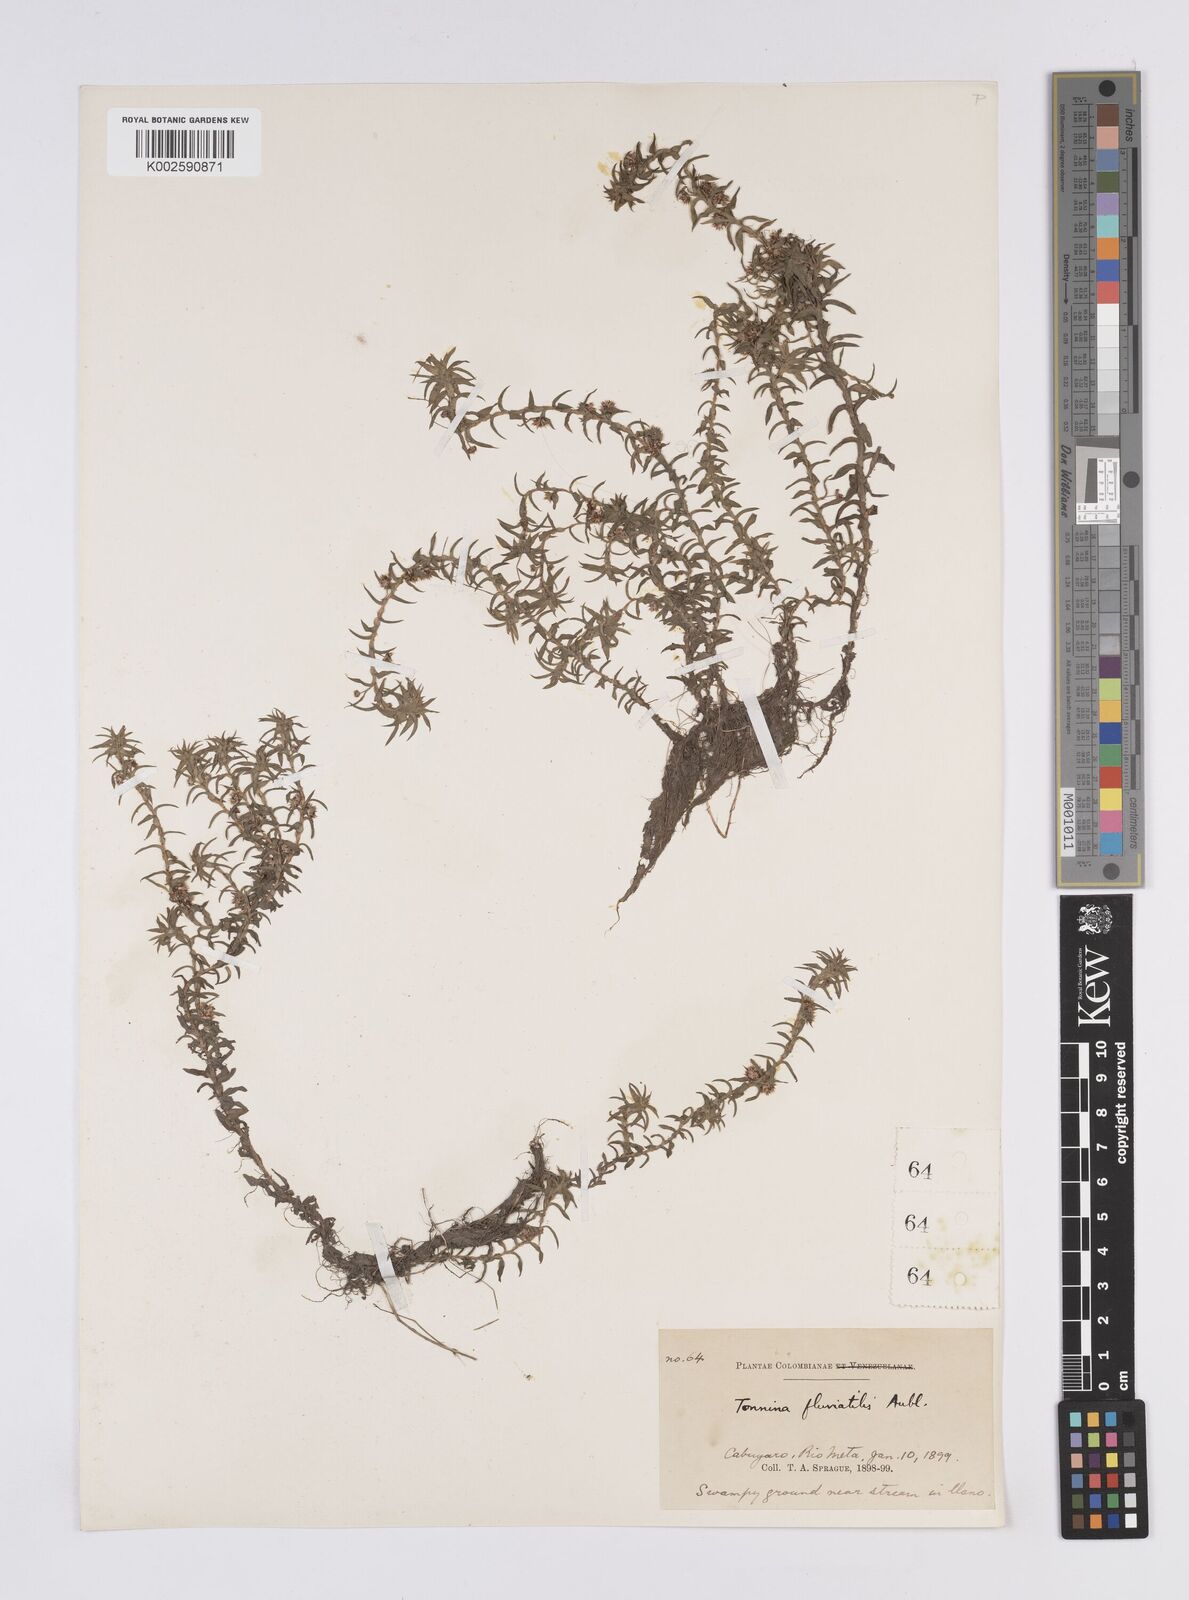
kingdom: Plantae
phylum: Tracheophyta
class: Liliopsida
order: Poales
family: Eriocaulaceae
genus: Paepalanthus
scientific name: Paepalanthus fluviatilis
